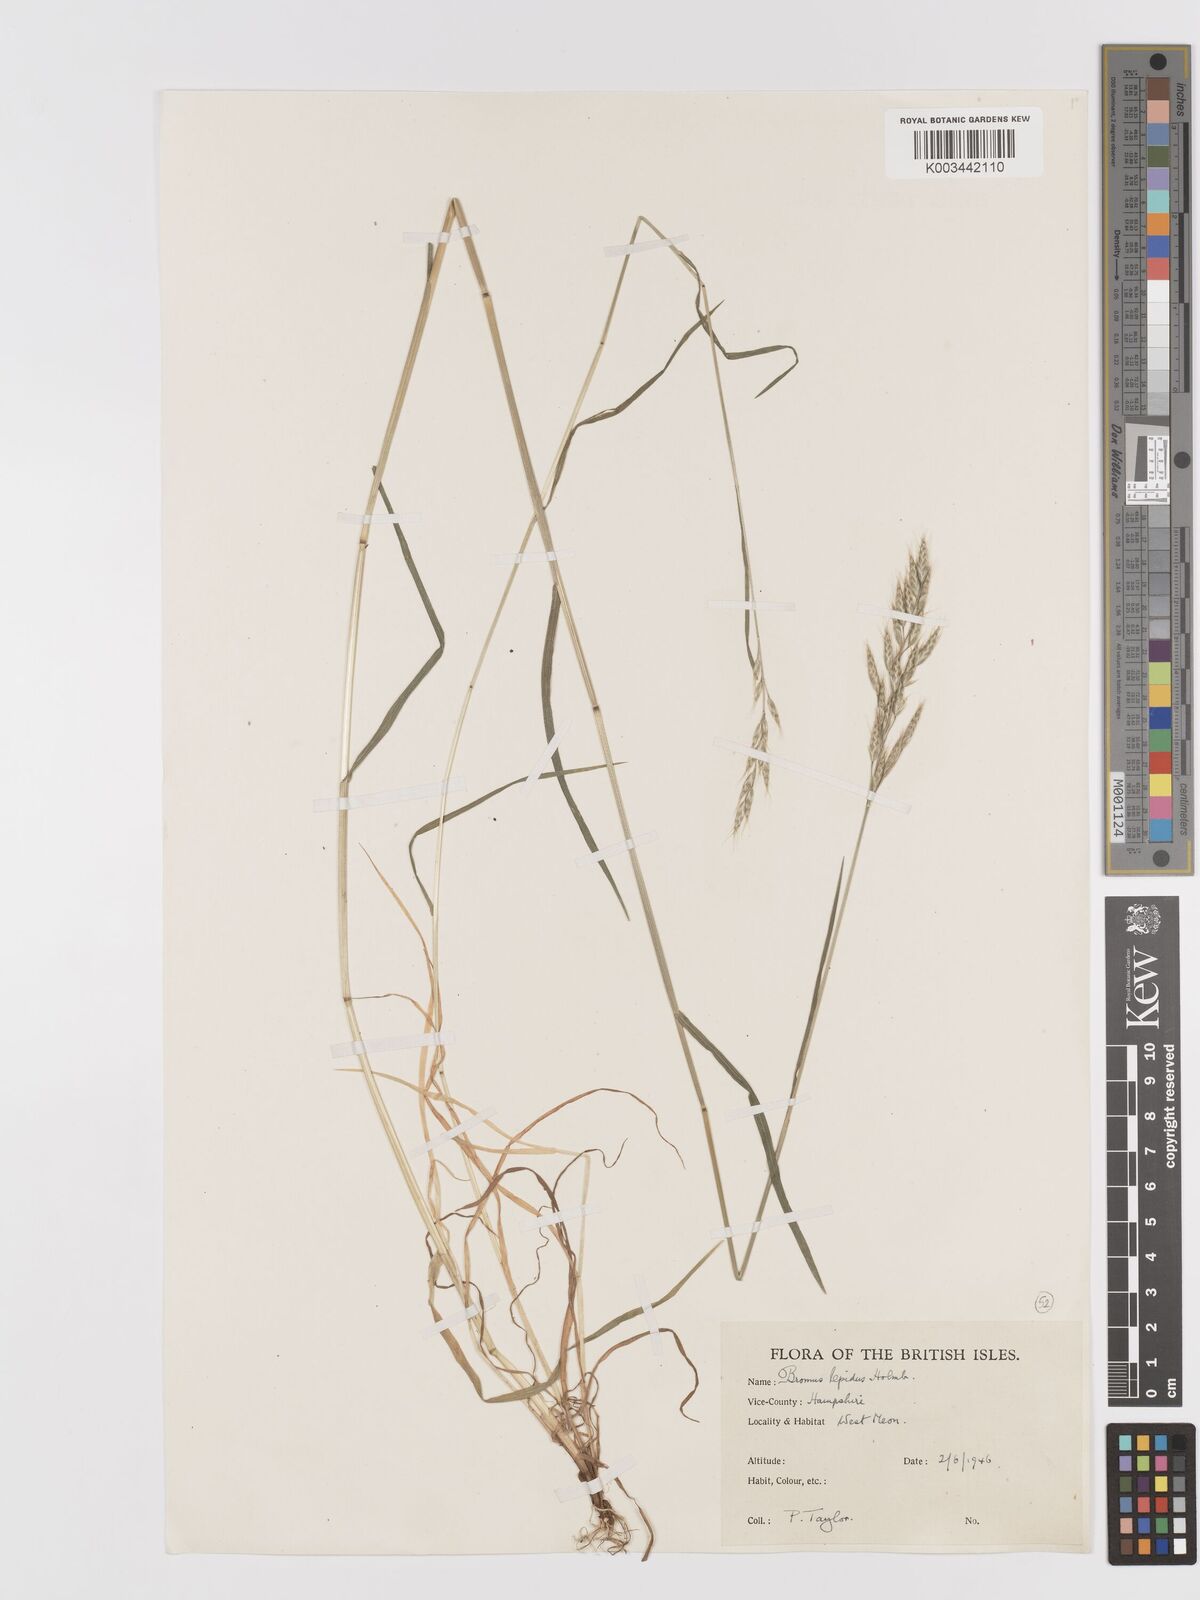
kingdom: Plantae
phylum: Tracheophyta
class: Liliopsida
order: Poales
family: Poaceae
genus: Bromus
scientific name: Bromus lepidus
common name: Slender soft-brome
